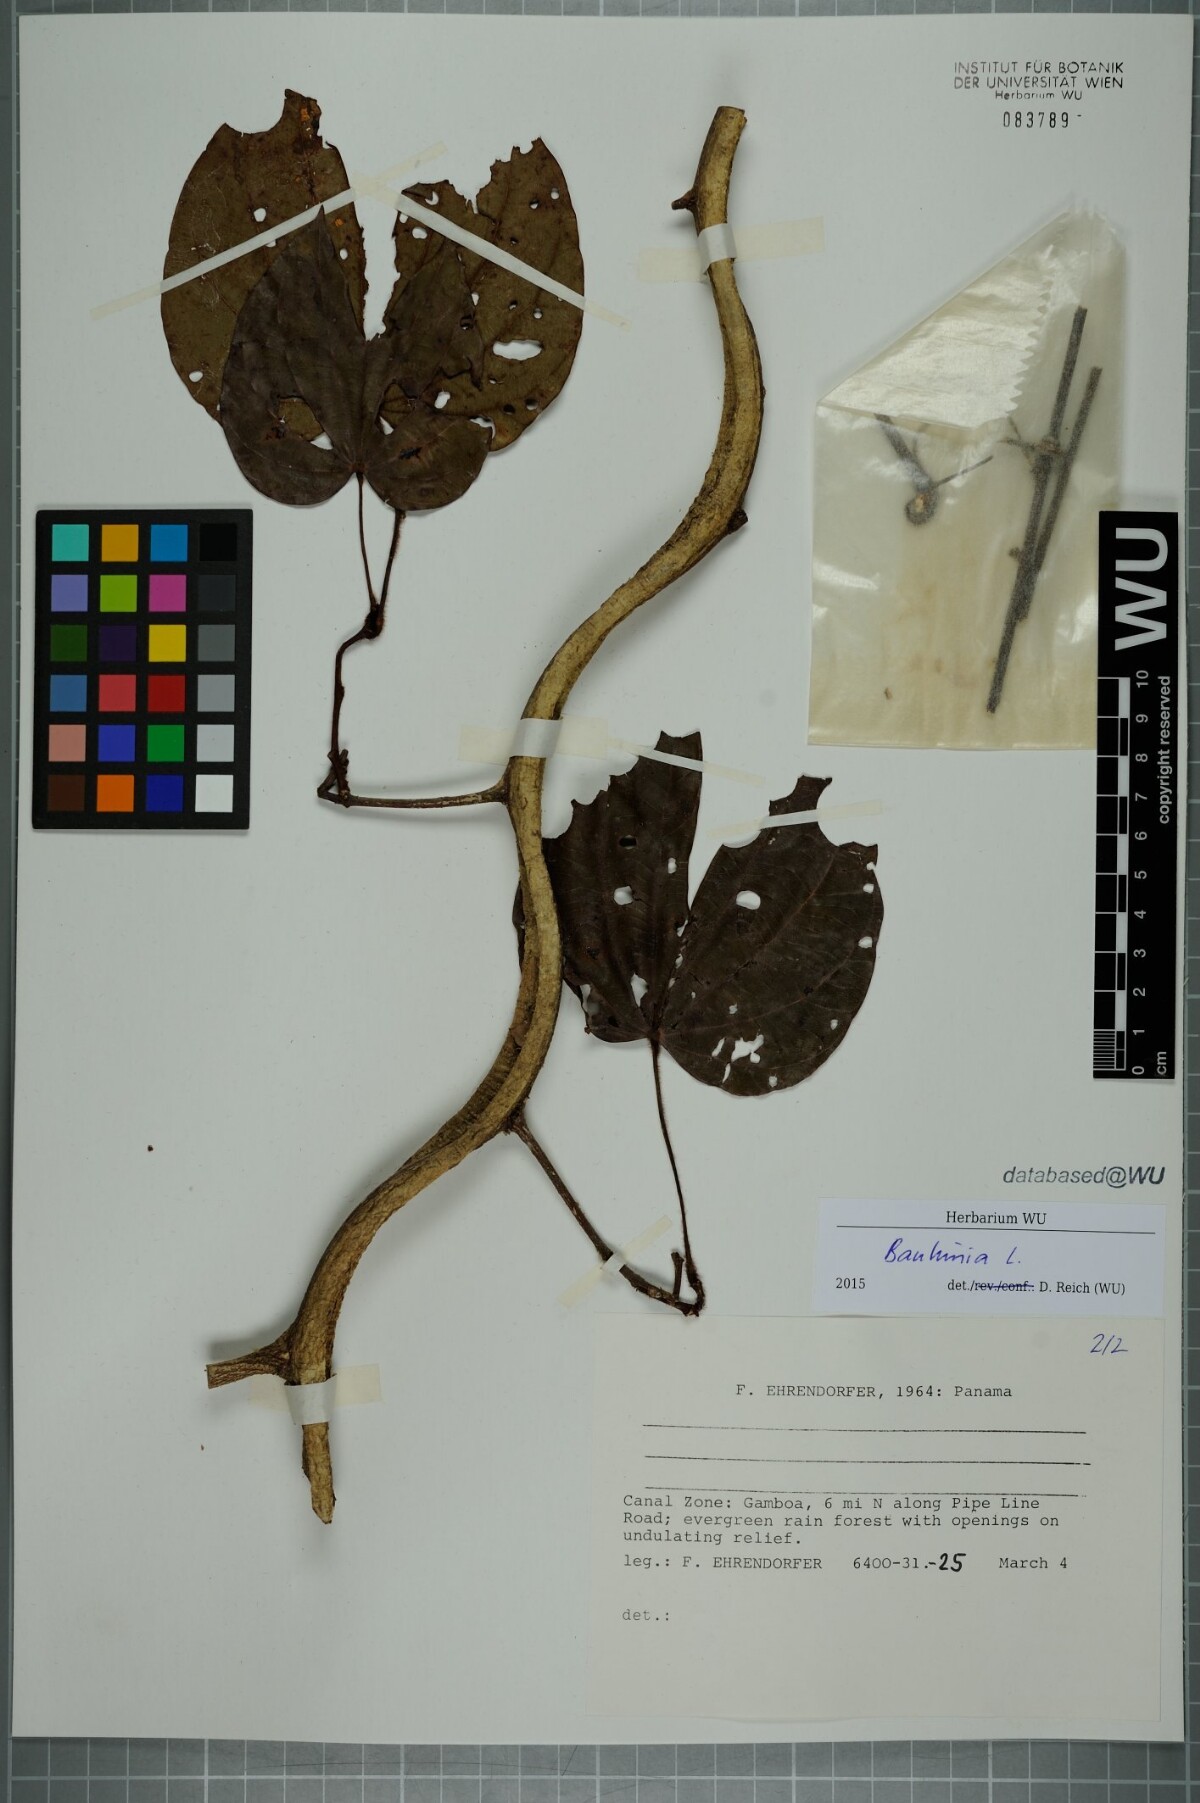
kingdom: Plantae
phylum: Tracheophyta
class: Magnoliopsida
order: Fabales
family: Fabaceae
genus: Bauhinia
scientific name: Bauhinia
